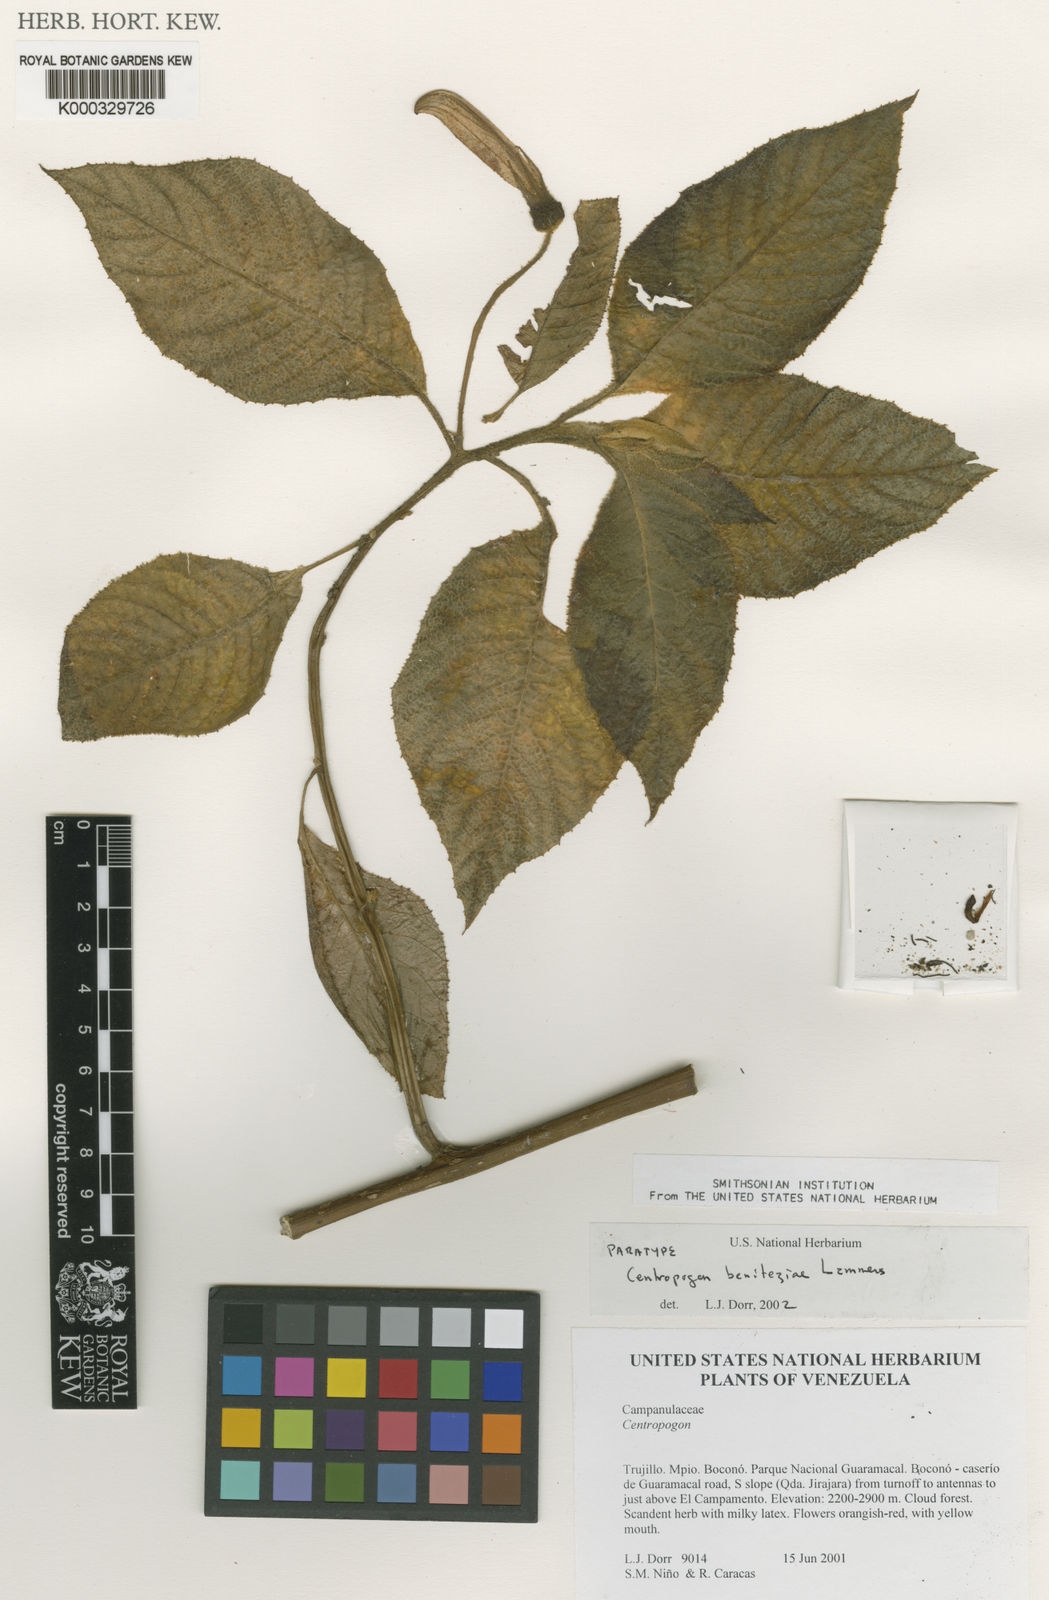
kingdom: Plantae
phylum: Tracheophyta
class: Magnoliopsida
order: Asterales
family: Campanulaceae
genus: Centropogon
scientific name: Centropogon beniteziae
